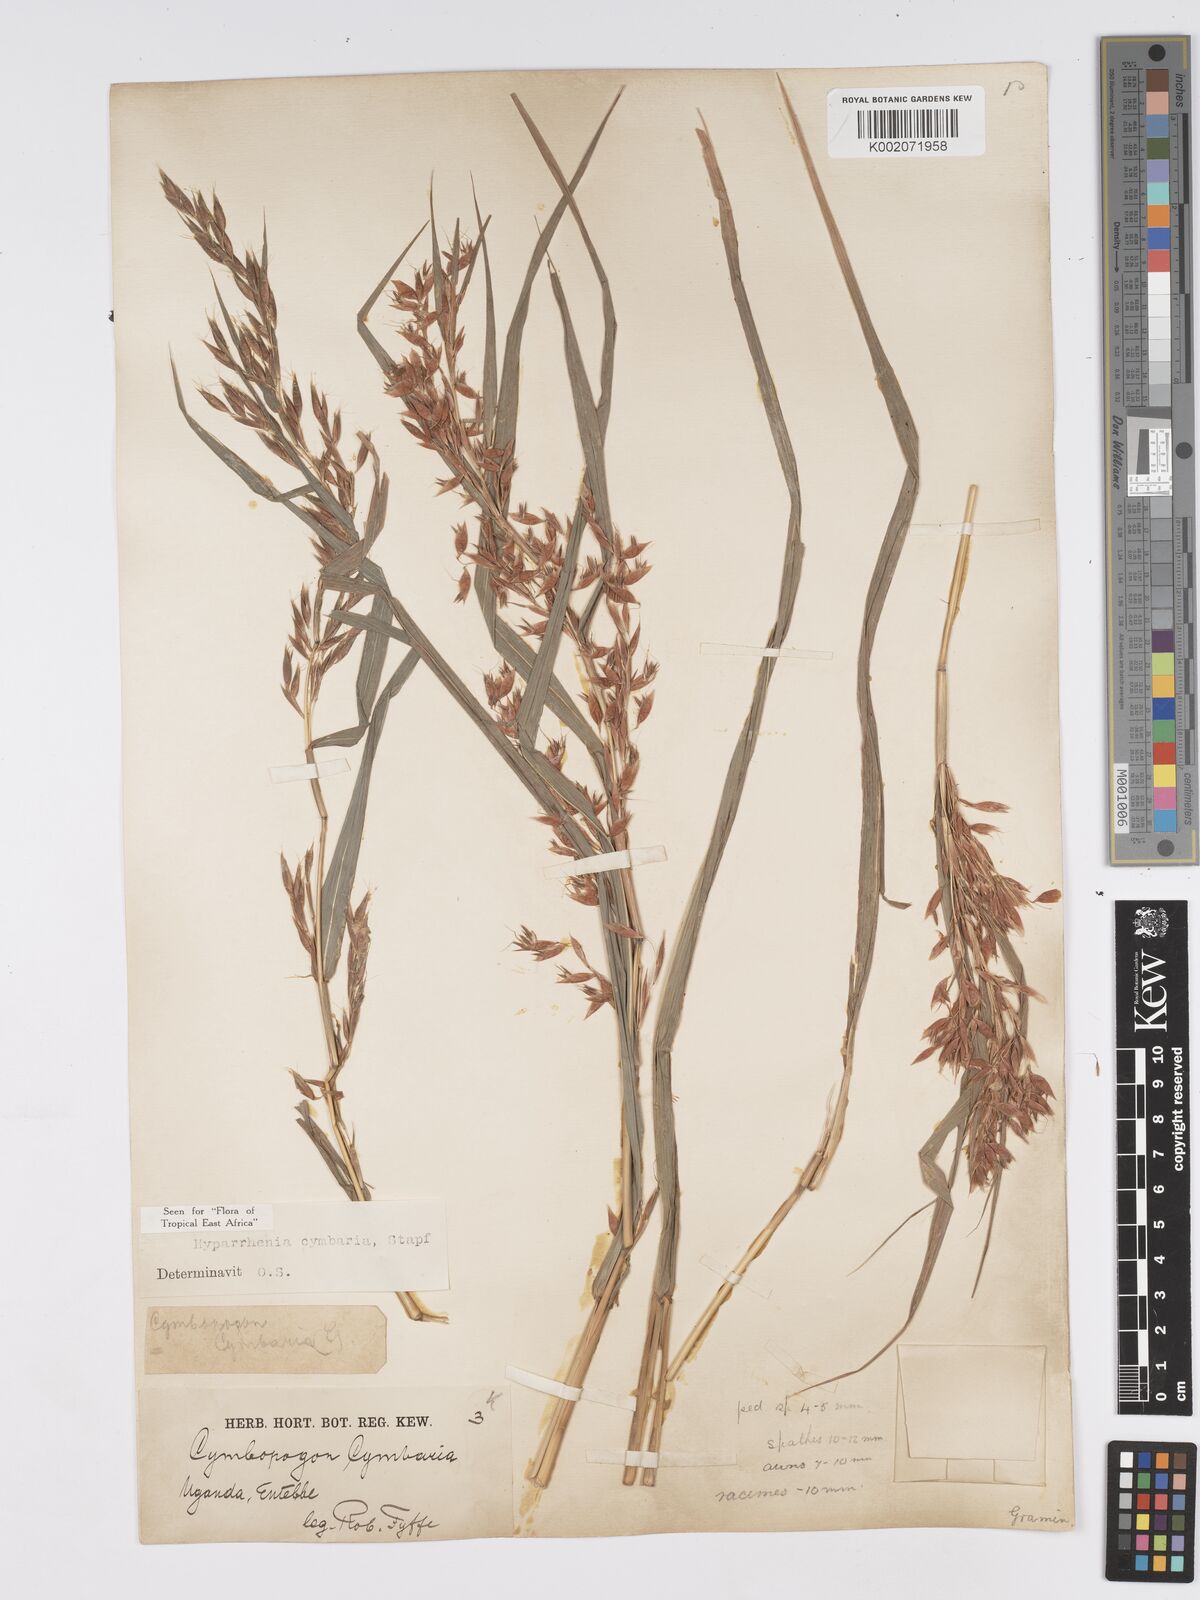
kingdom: Plantae
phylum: Tracheophyta
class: Liliopsida
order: Poales
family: Poaceae
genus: Hyparrhenia
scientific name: Hyparrhenia cymbaria
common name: Boat thatching grass
